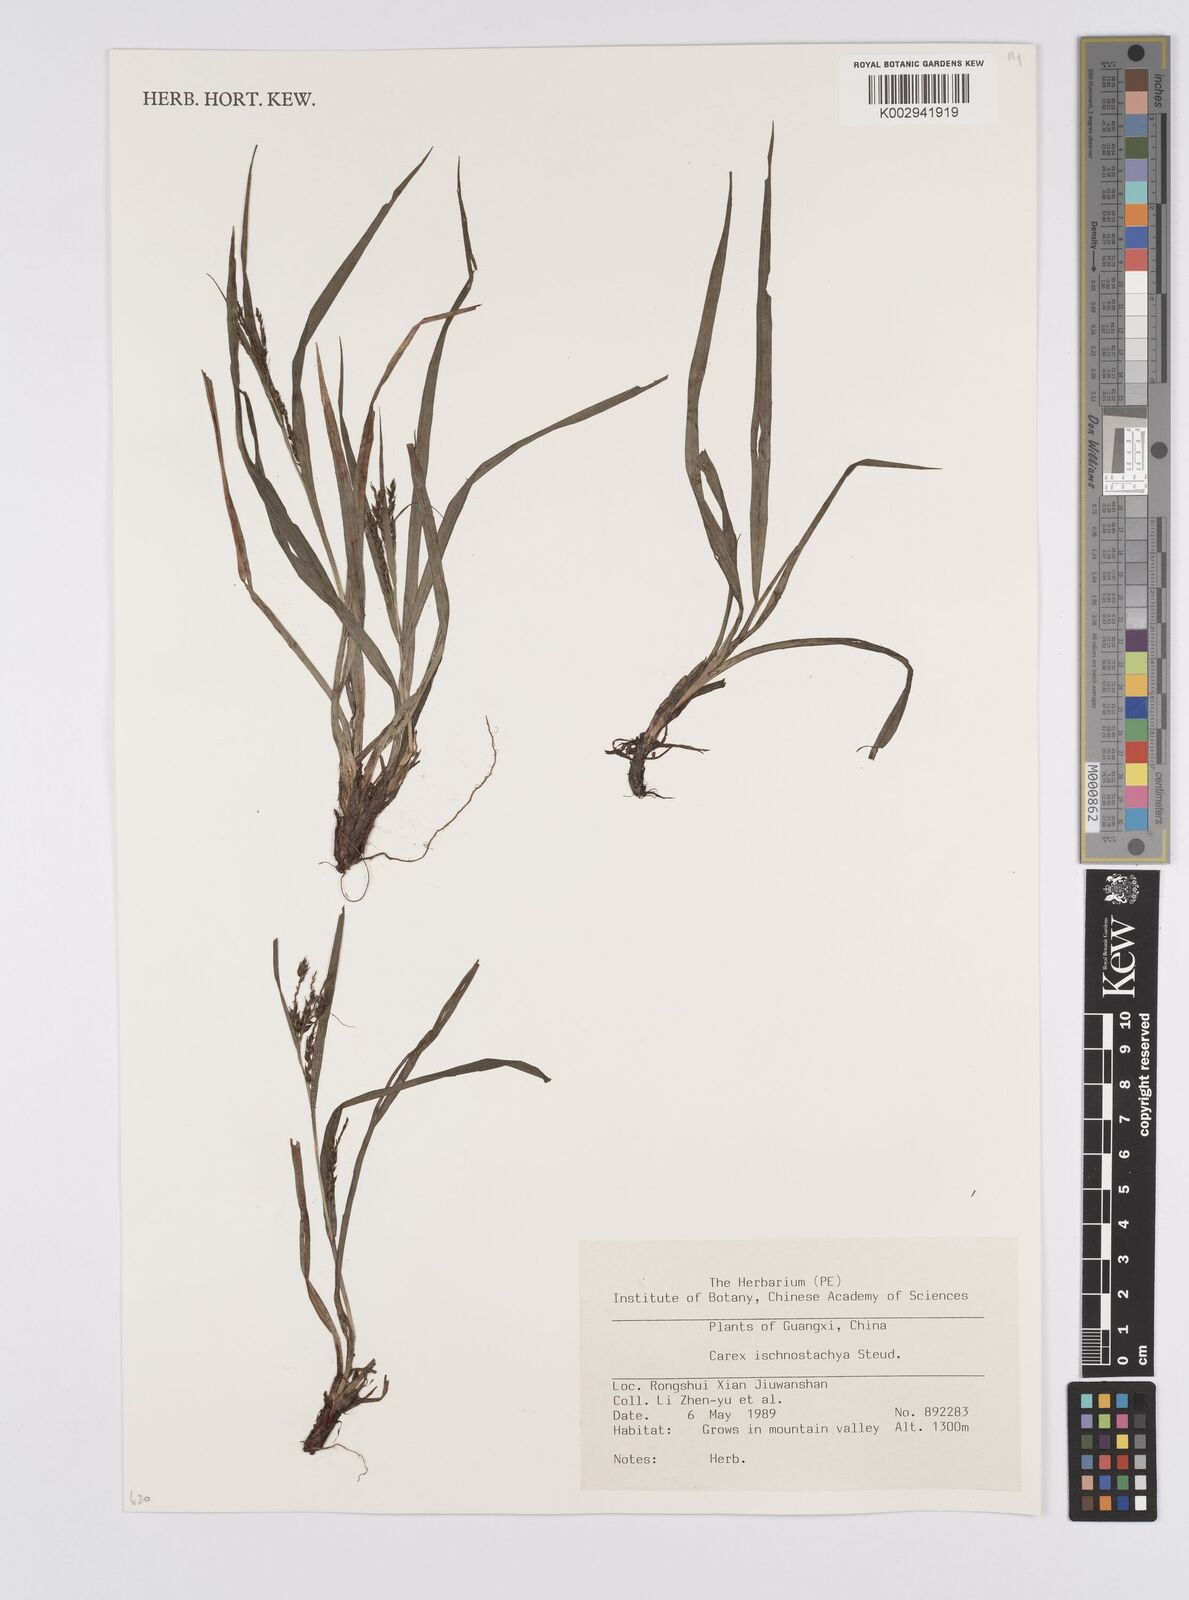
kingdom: Plantae
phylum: Tracheophyta
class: Liliopsida
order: Poales
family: Cyperaceae
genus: Carex
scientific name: Carex ischnostachya
